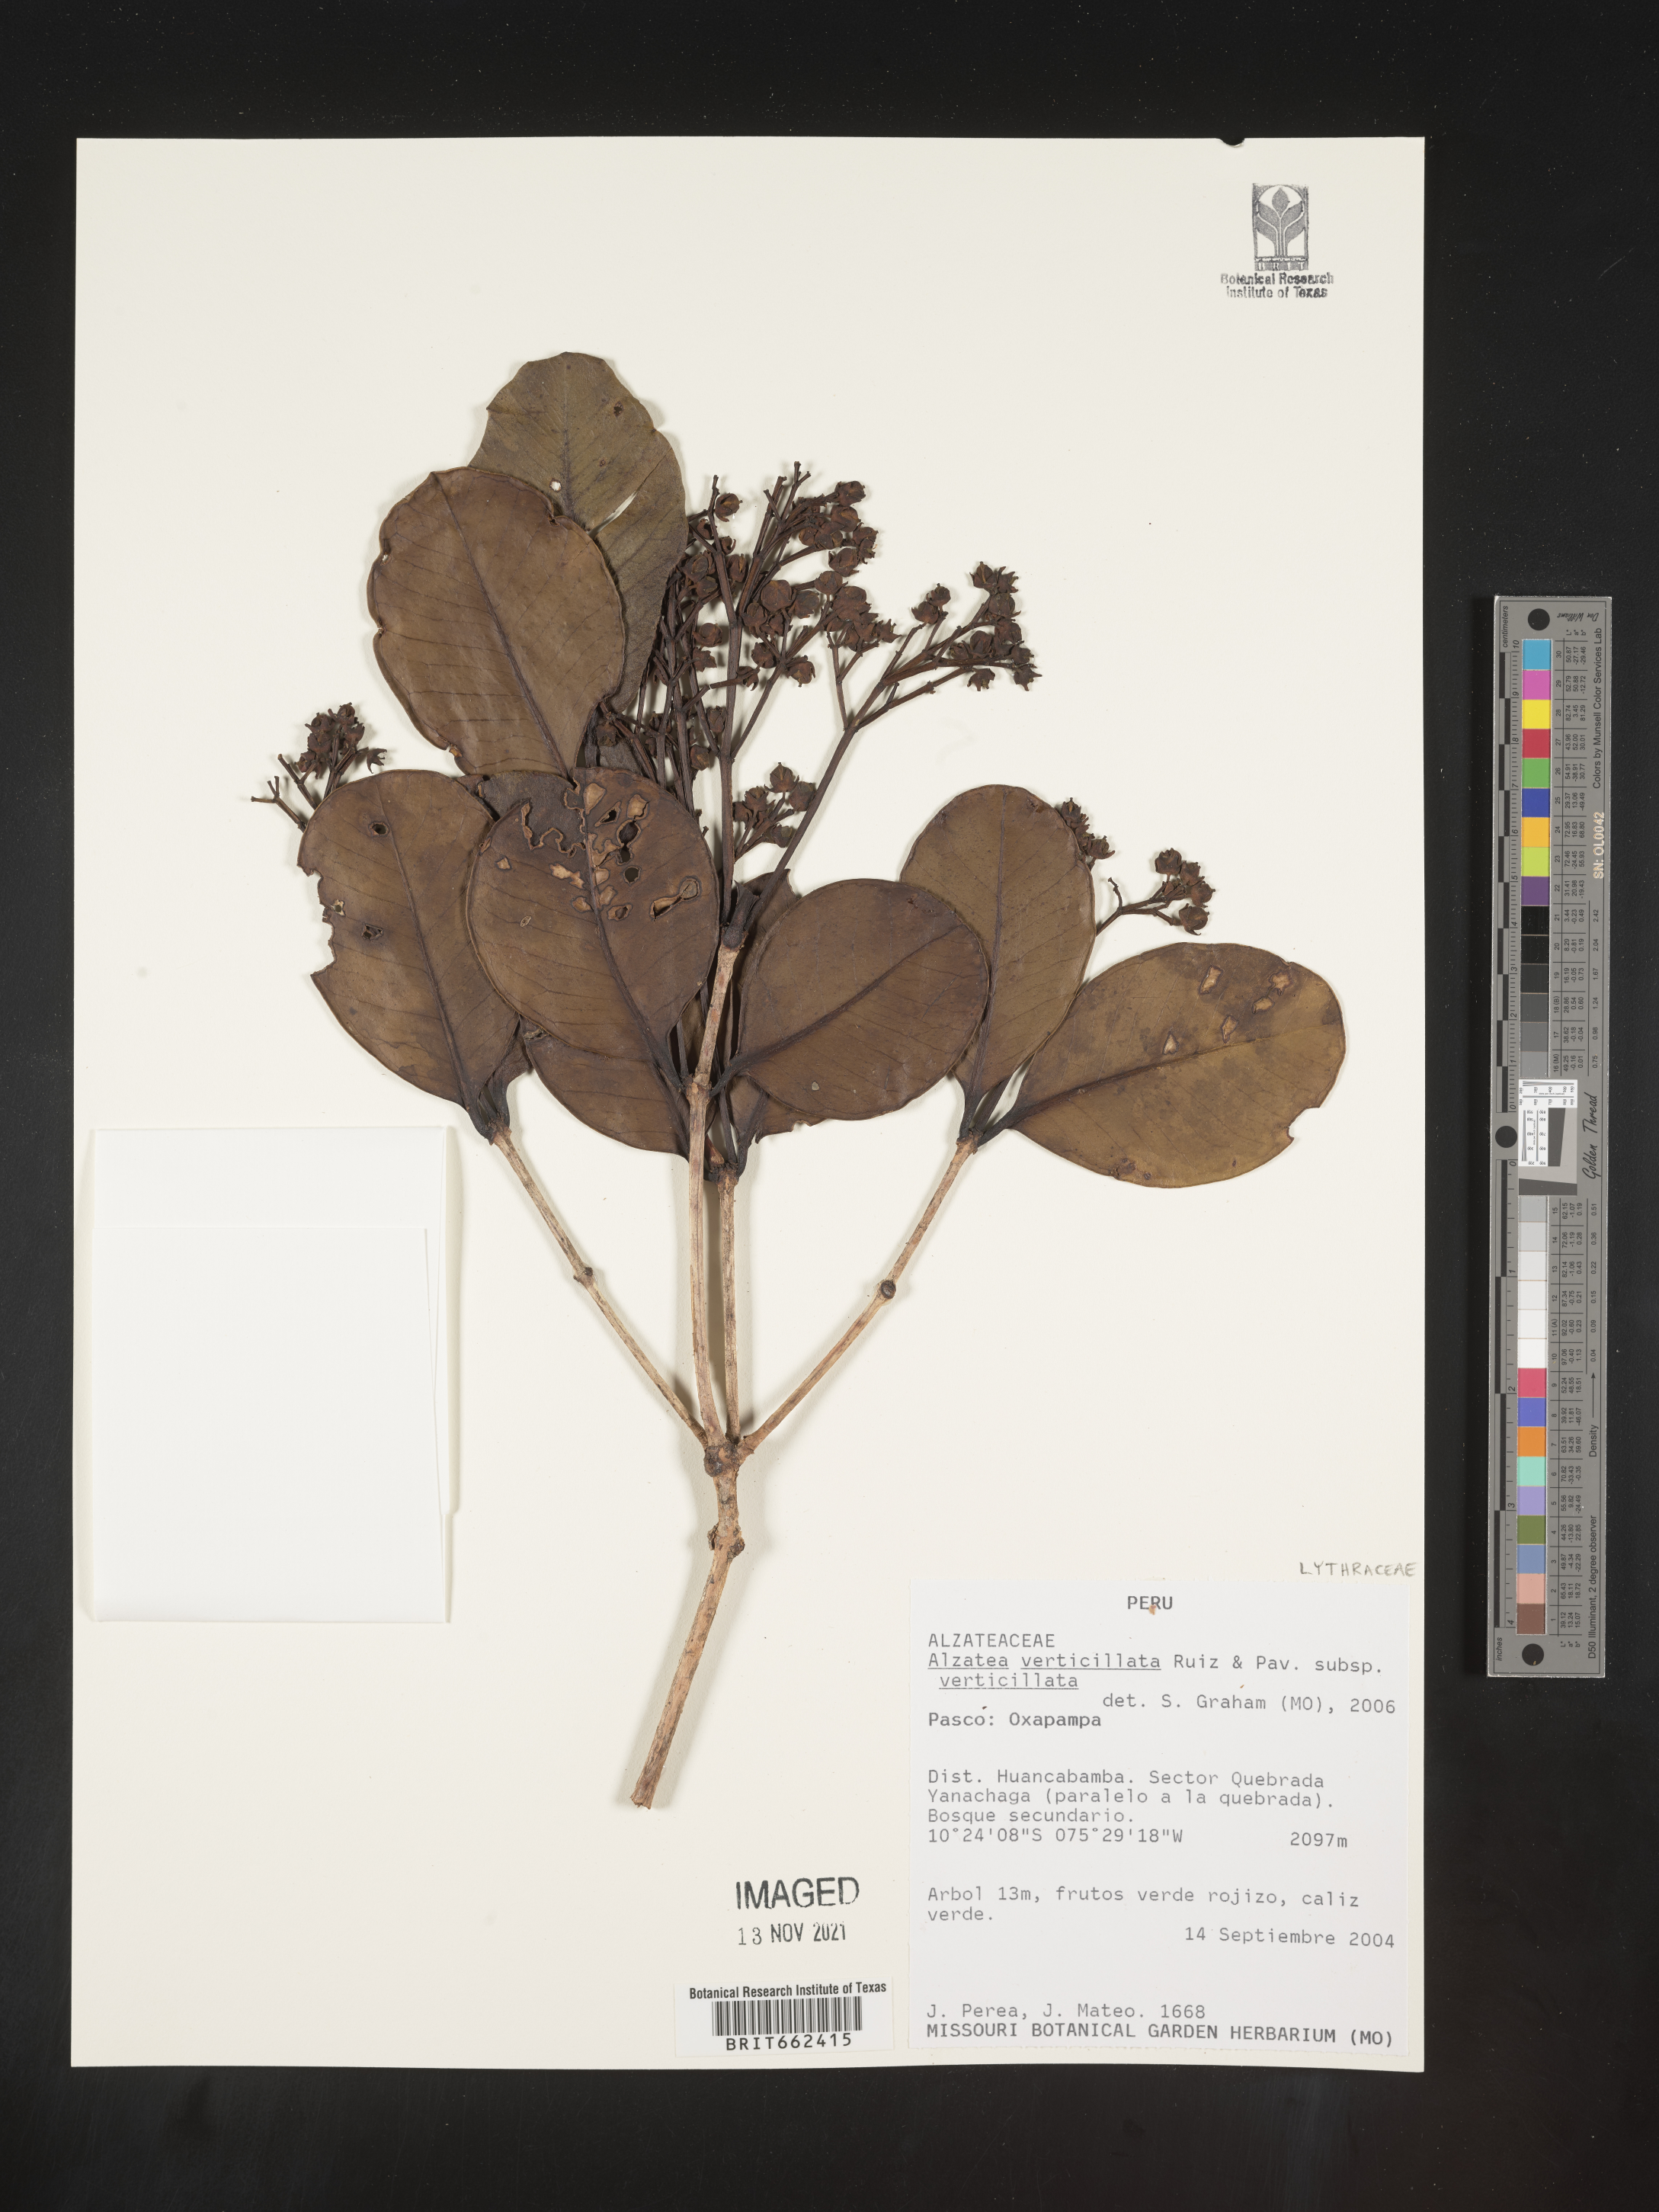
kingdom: Plantae
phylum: Tracheophyta
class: Magnoliopsida
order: Myrtales
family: Alzateaceae
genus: Alzatea
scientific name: Alzatea
